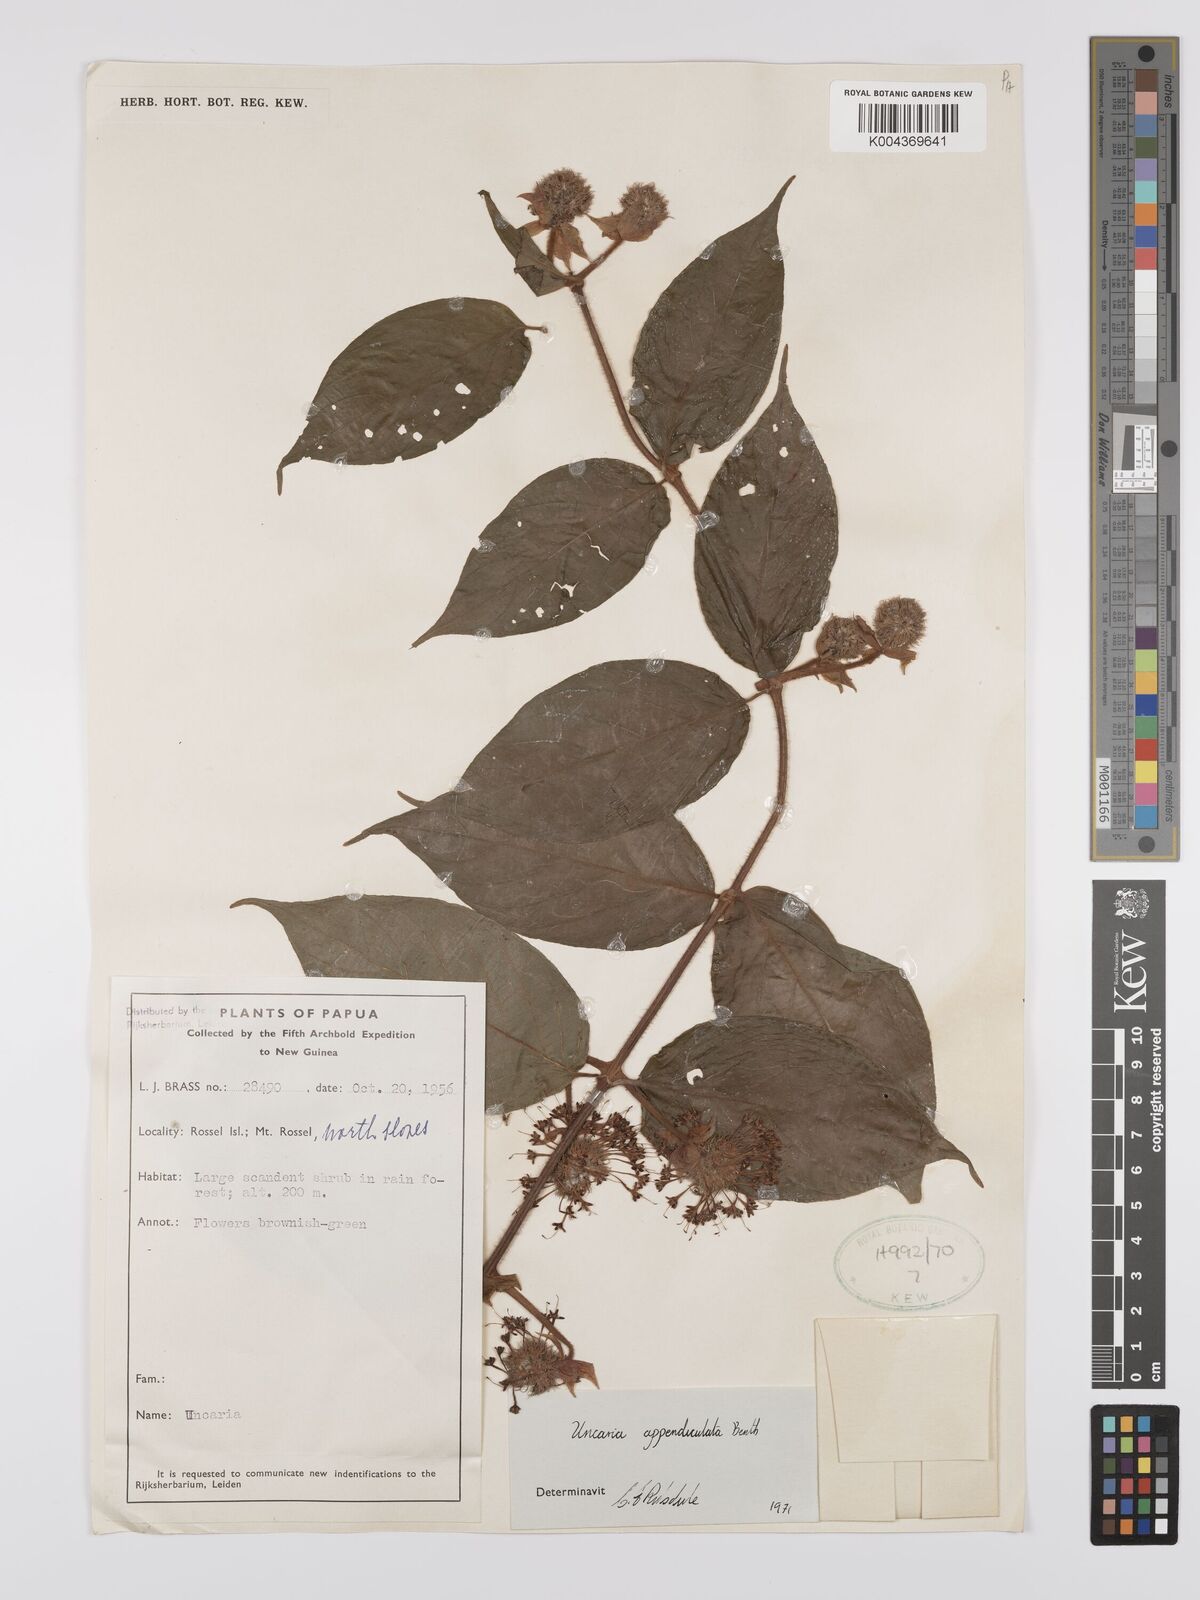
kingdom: Plantae
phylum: Tracheophyta
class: Magnoliopsida
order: Gentianales
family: Rubiaceae
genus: Uncaria
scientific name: Uncaria lanosa
